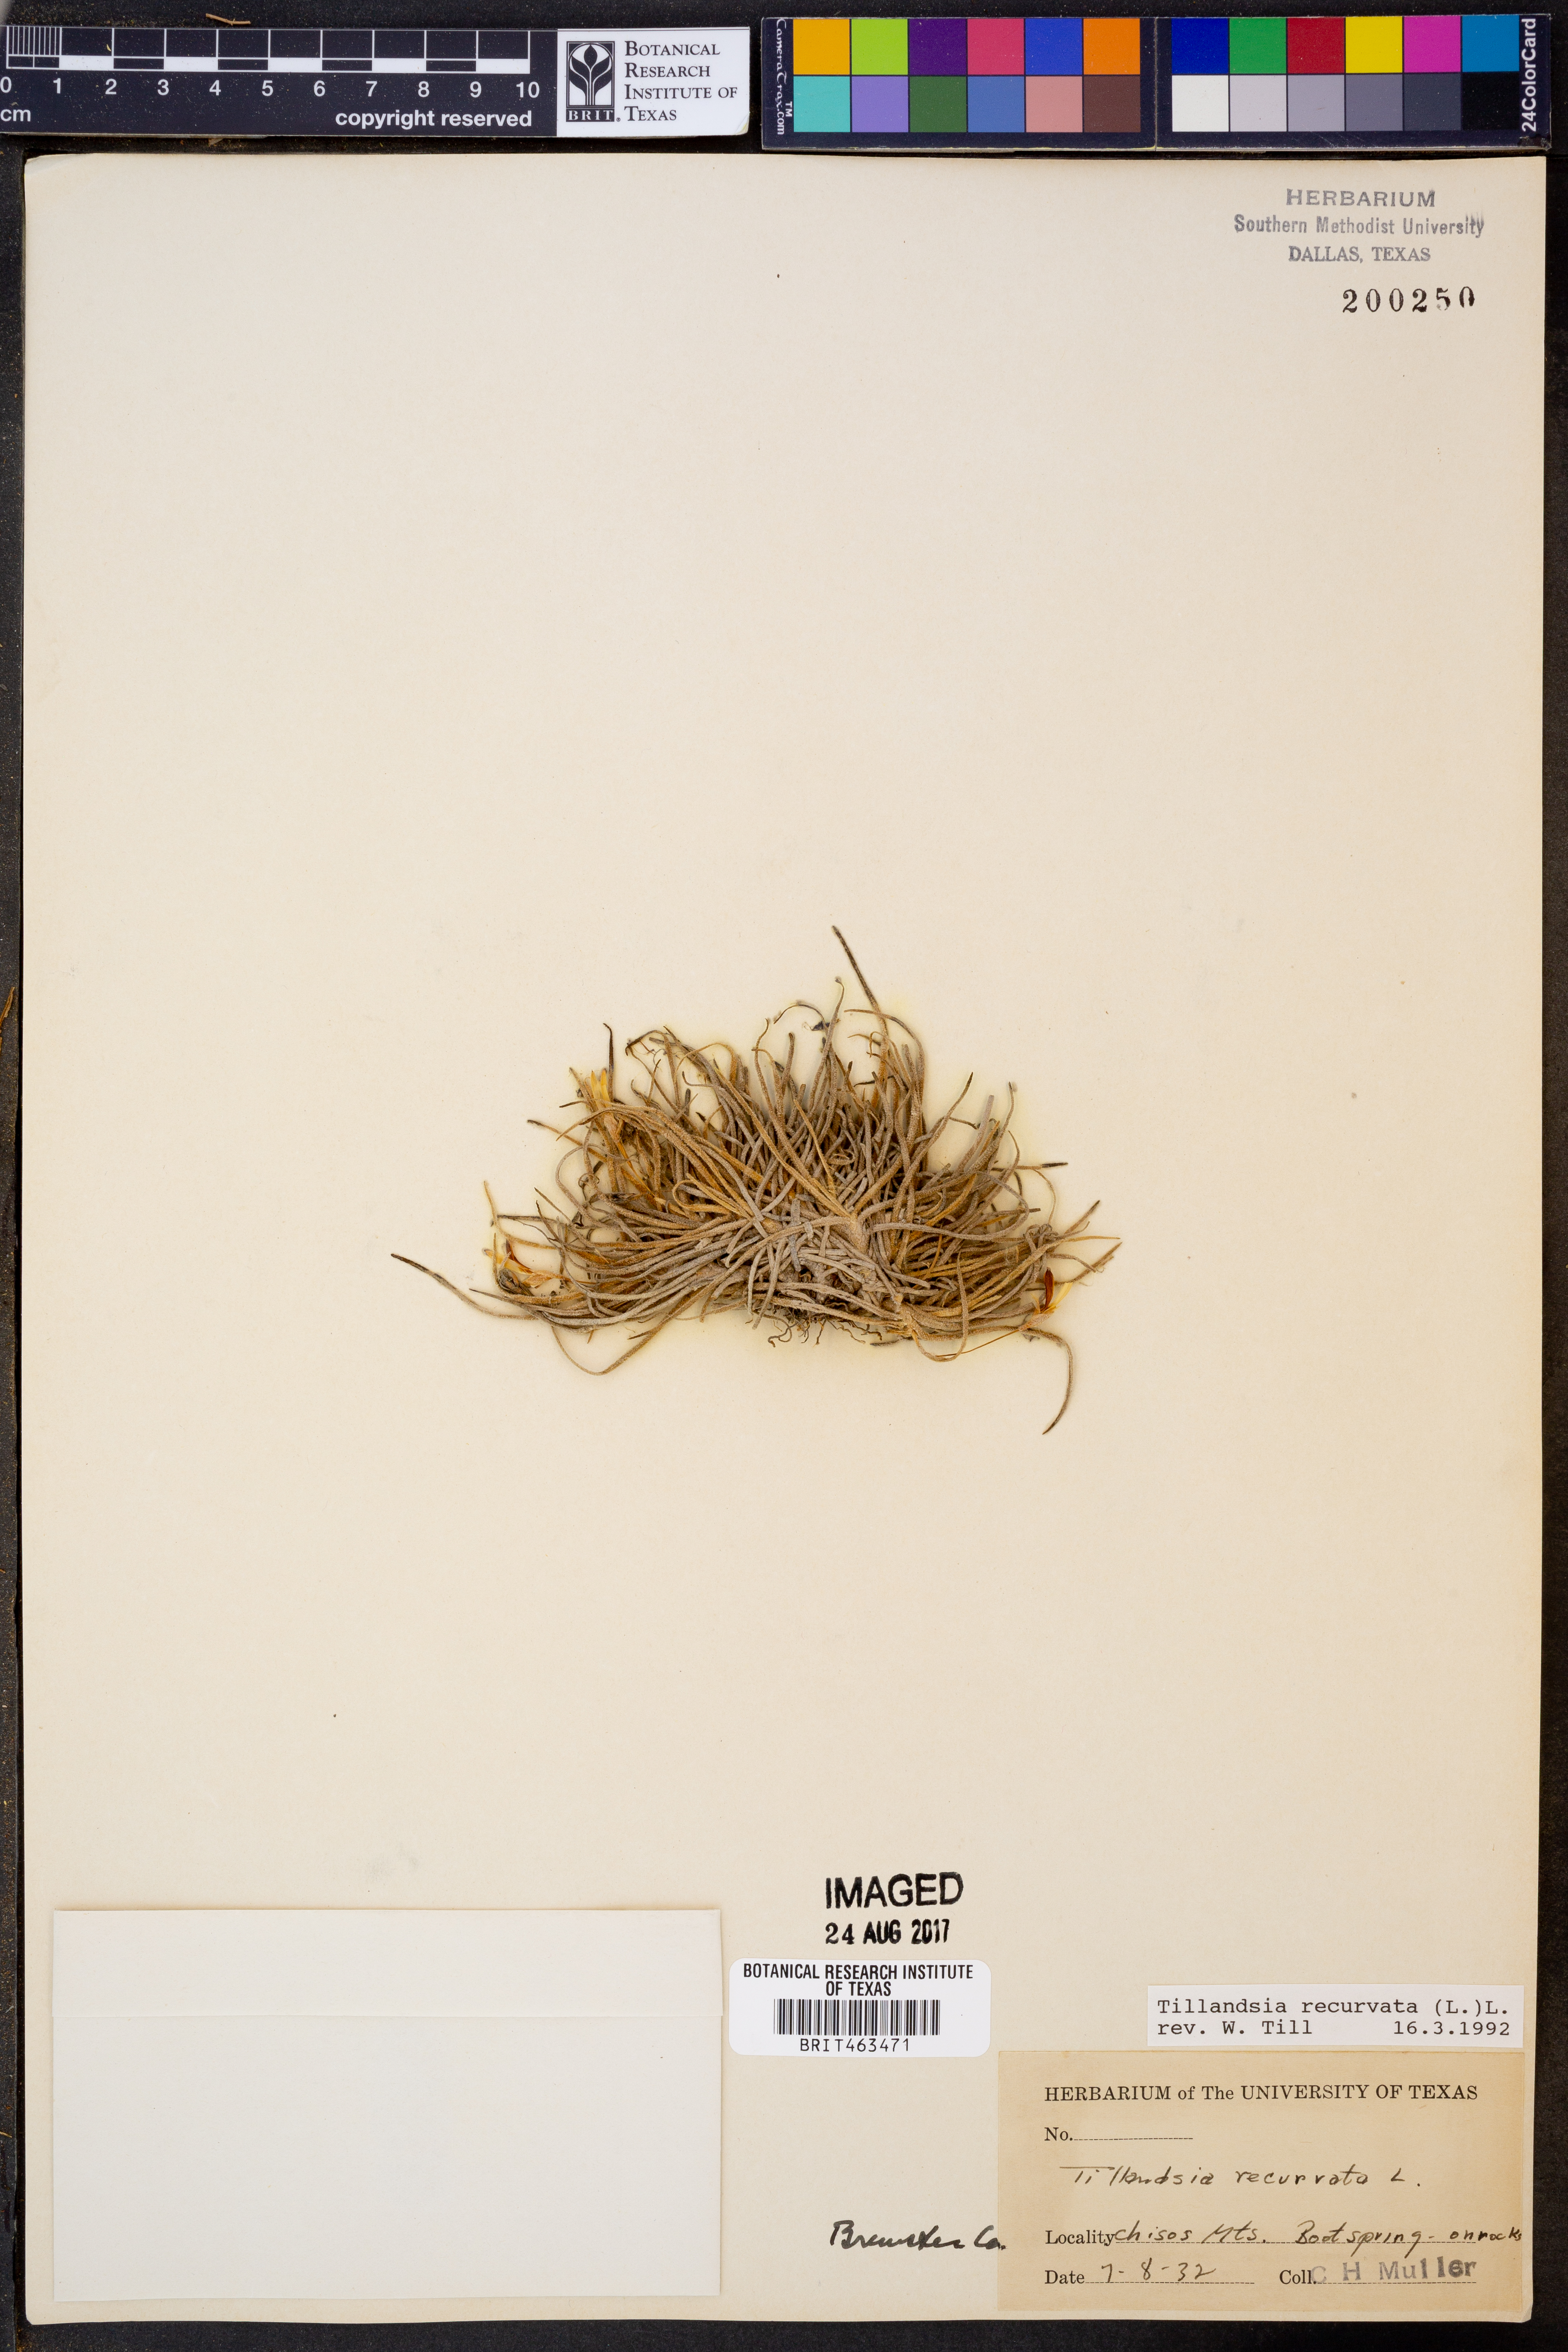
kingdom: Plantae
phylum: Tracheophyta
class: Liliopsida
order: Poales
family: Bromeliaceae
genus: Tillandsia
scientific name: Tillandsia recurvata
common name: Small ballmoss
